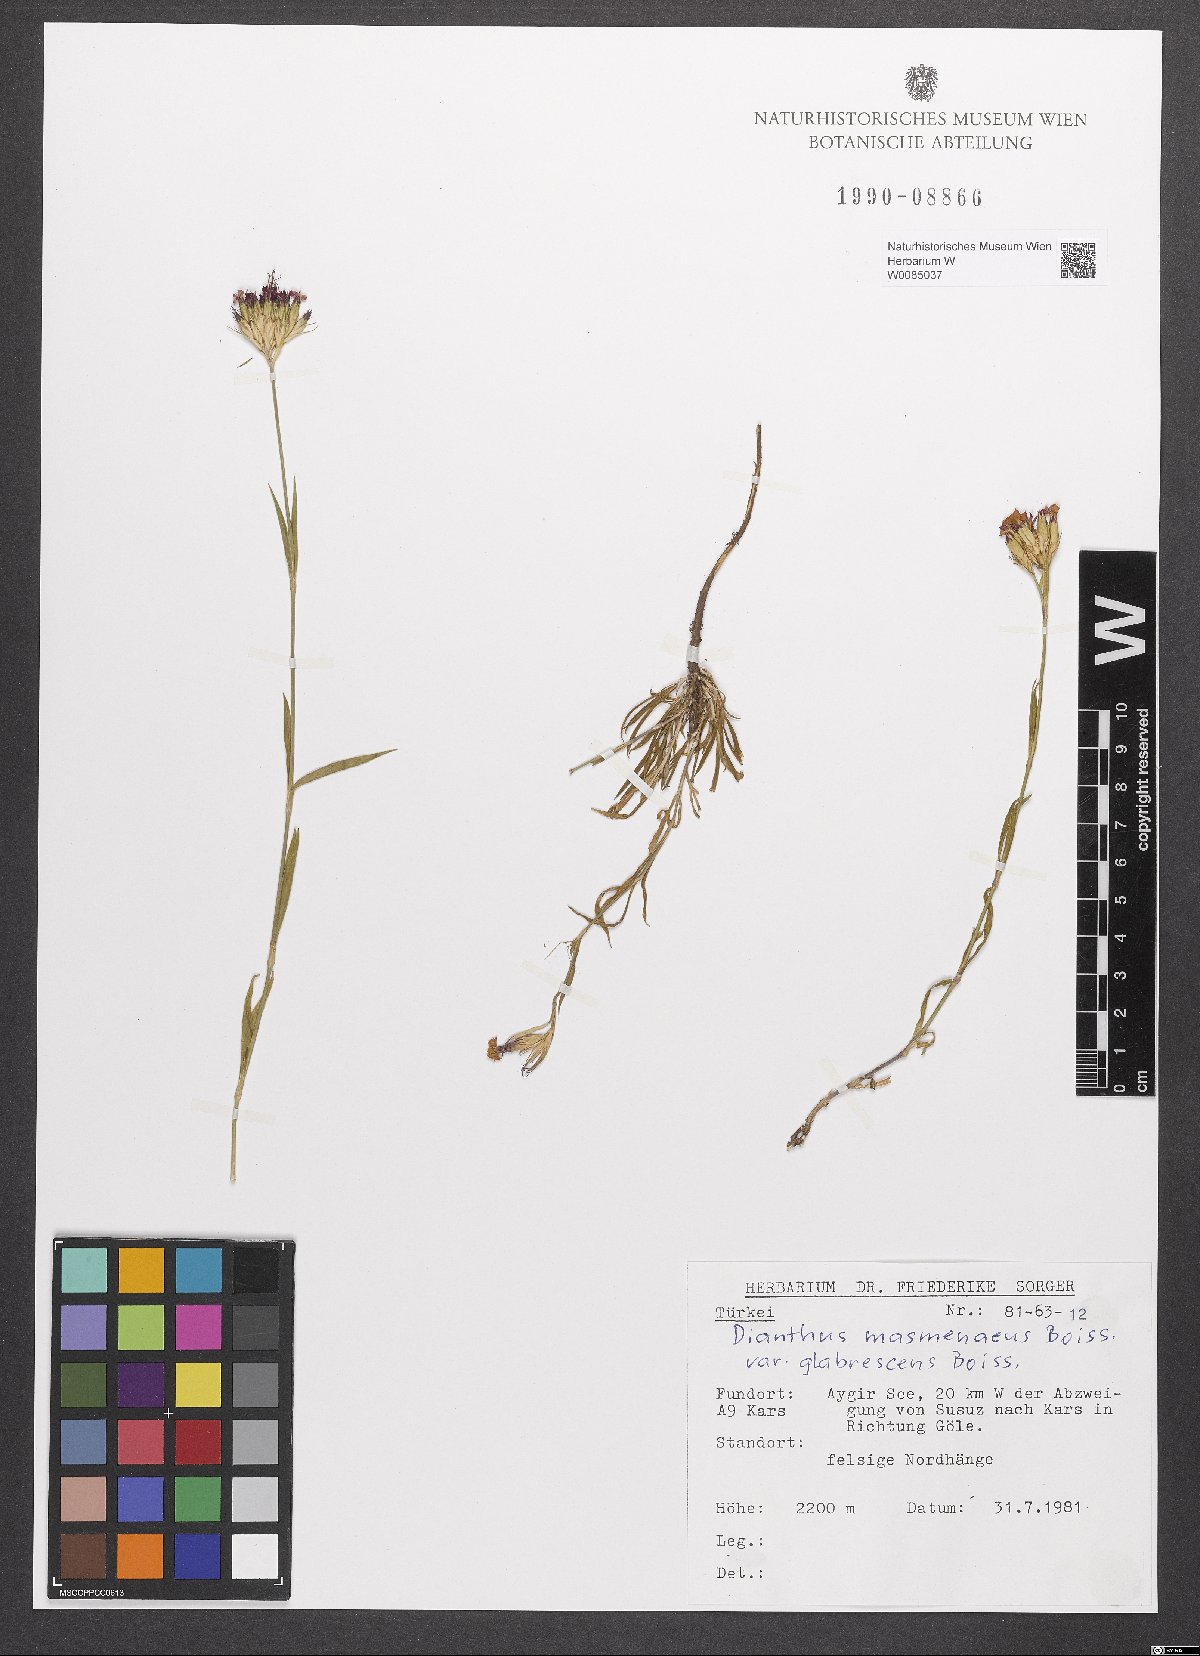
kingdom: Plantae
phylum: Tracheophyta
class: Magnoliopsida
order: Caryophyllales
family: Caryophyllaceae
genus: Dianthus
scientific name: Dianthus masmenaeus
